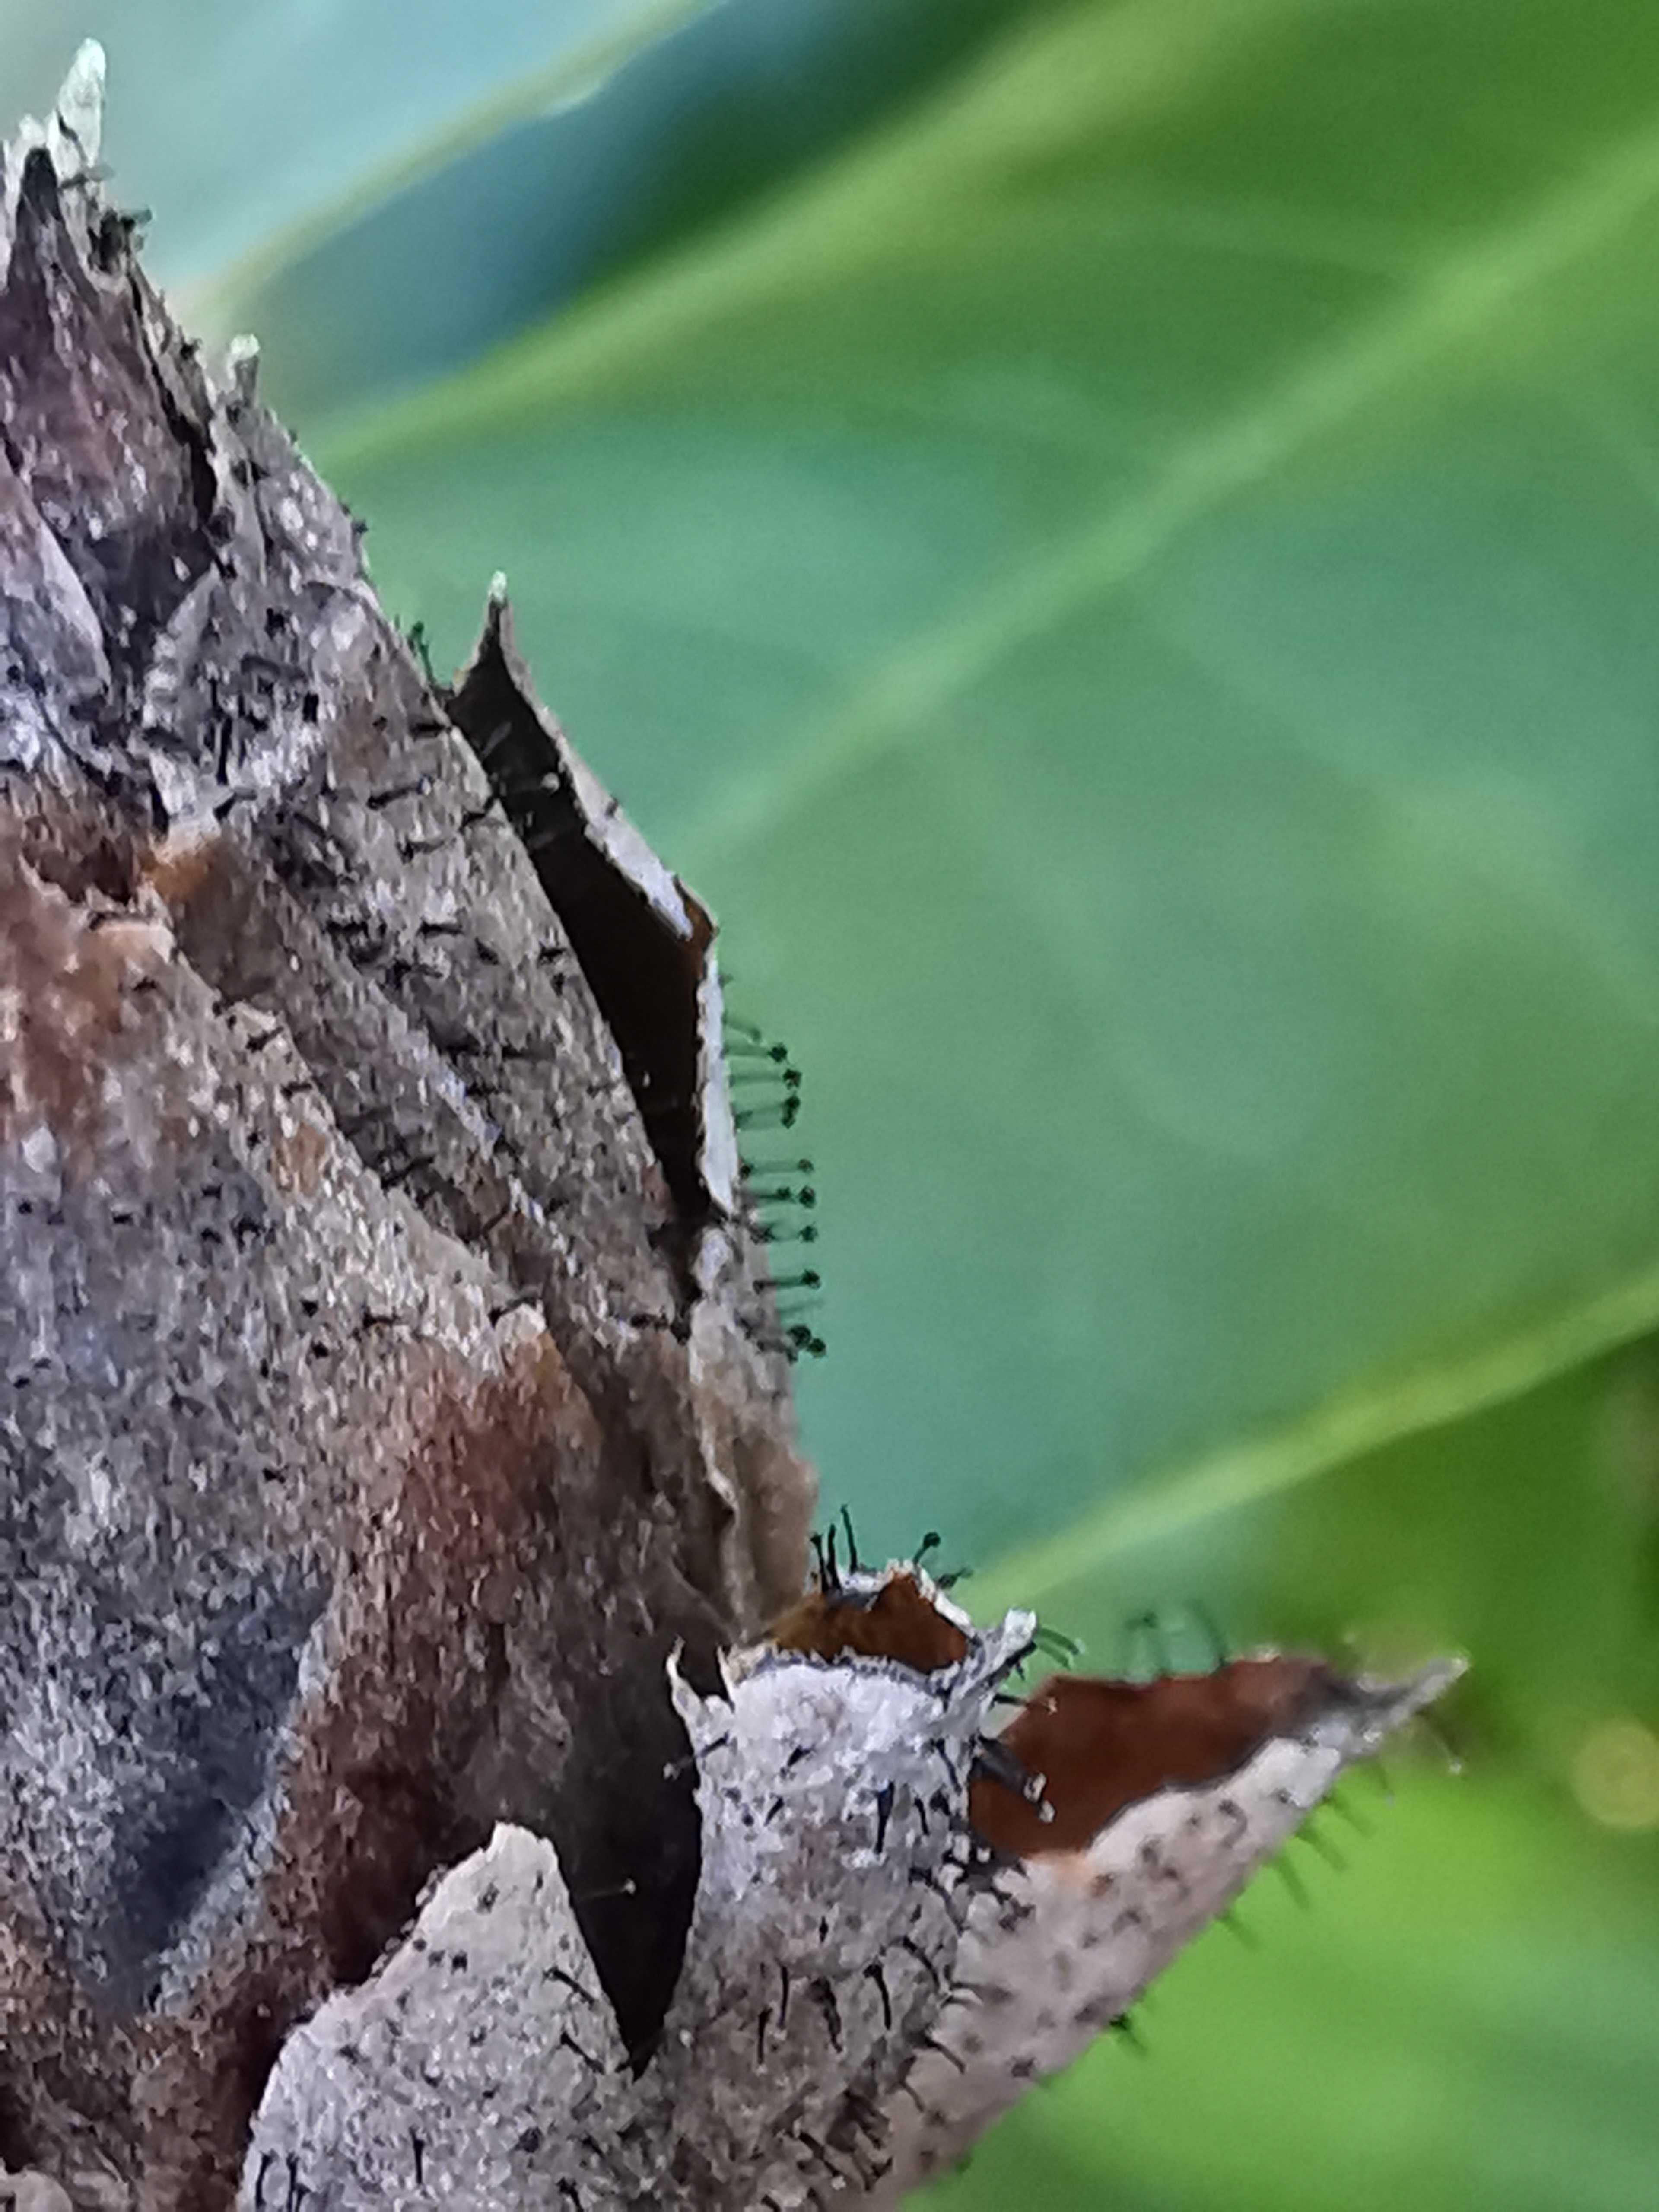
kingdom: Fungi
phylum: Ascomycota
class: Dothideomycetes
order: Pleosporales
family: Melanommataceae
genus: Seifertia
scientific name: Seifertia azaleae
